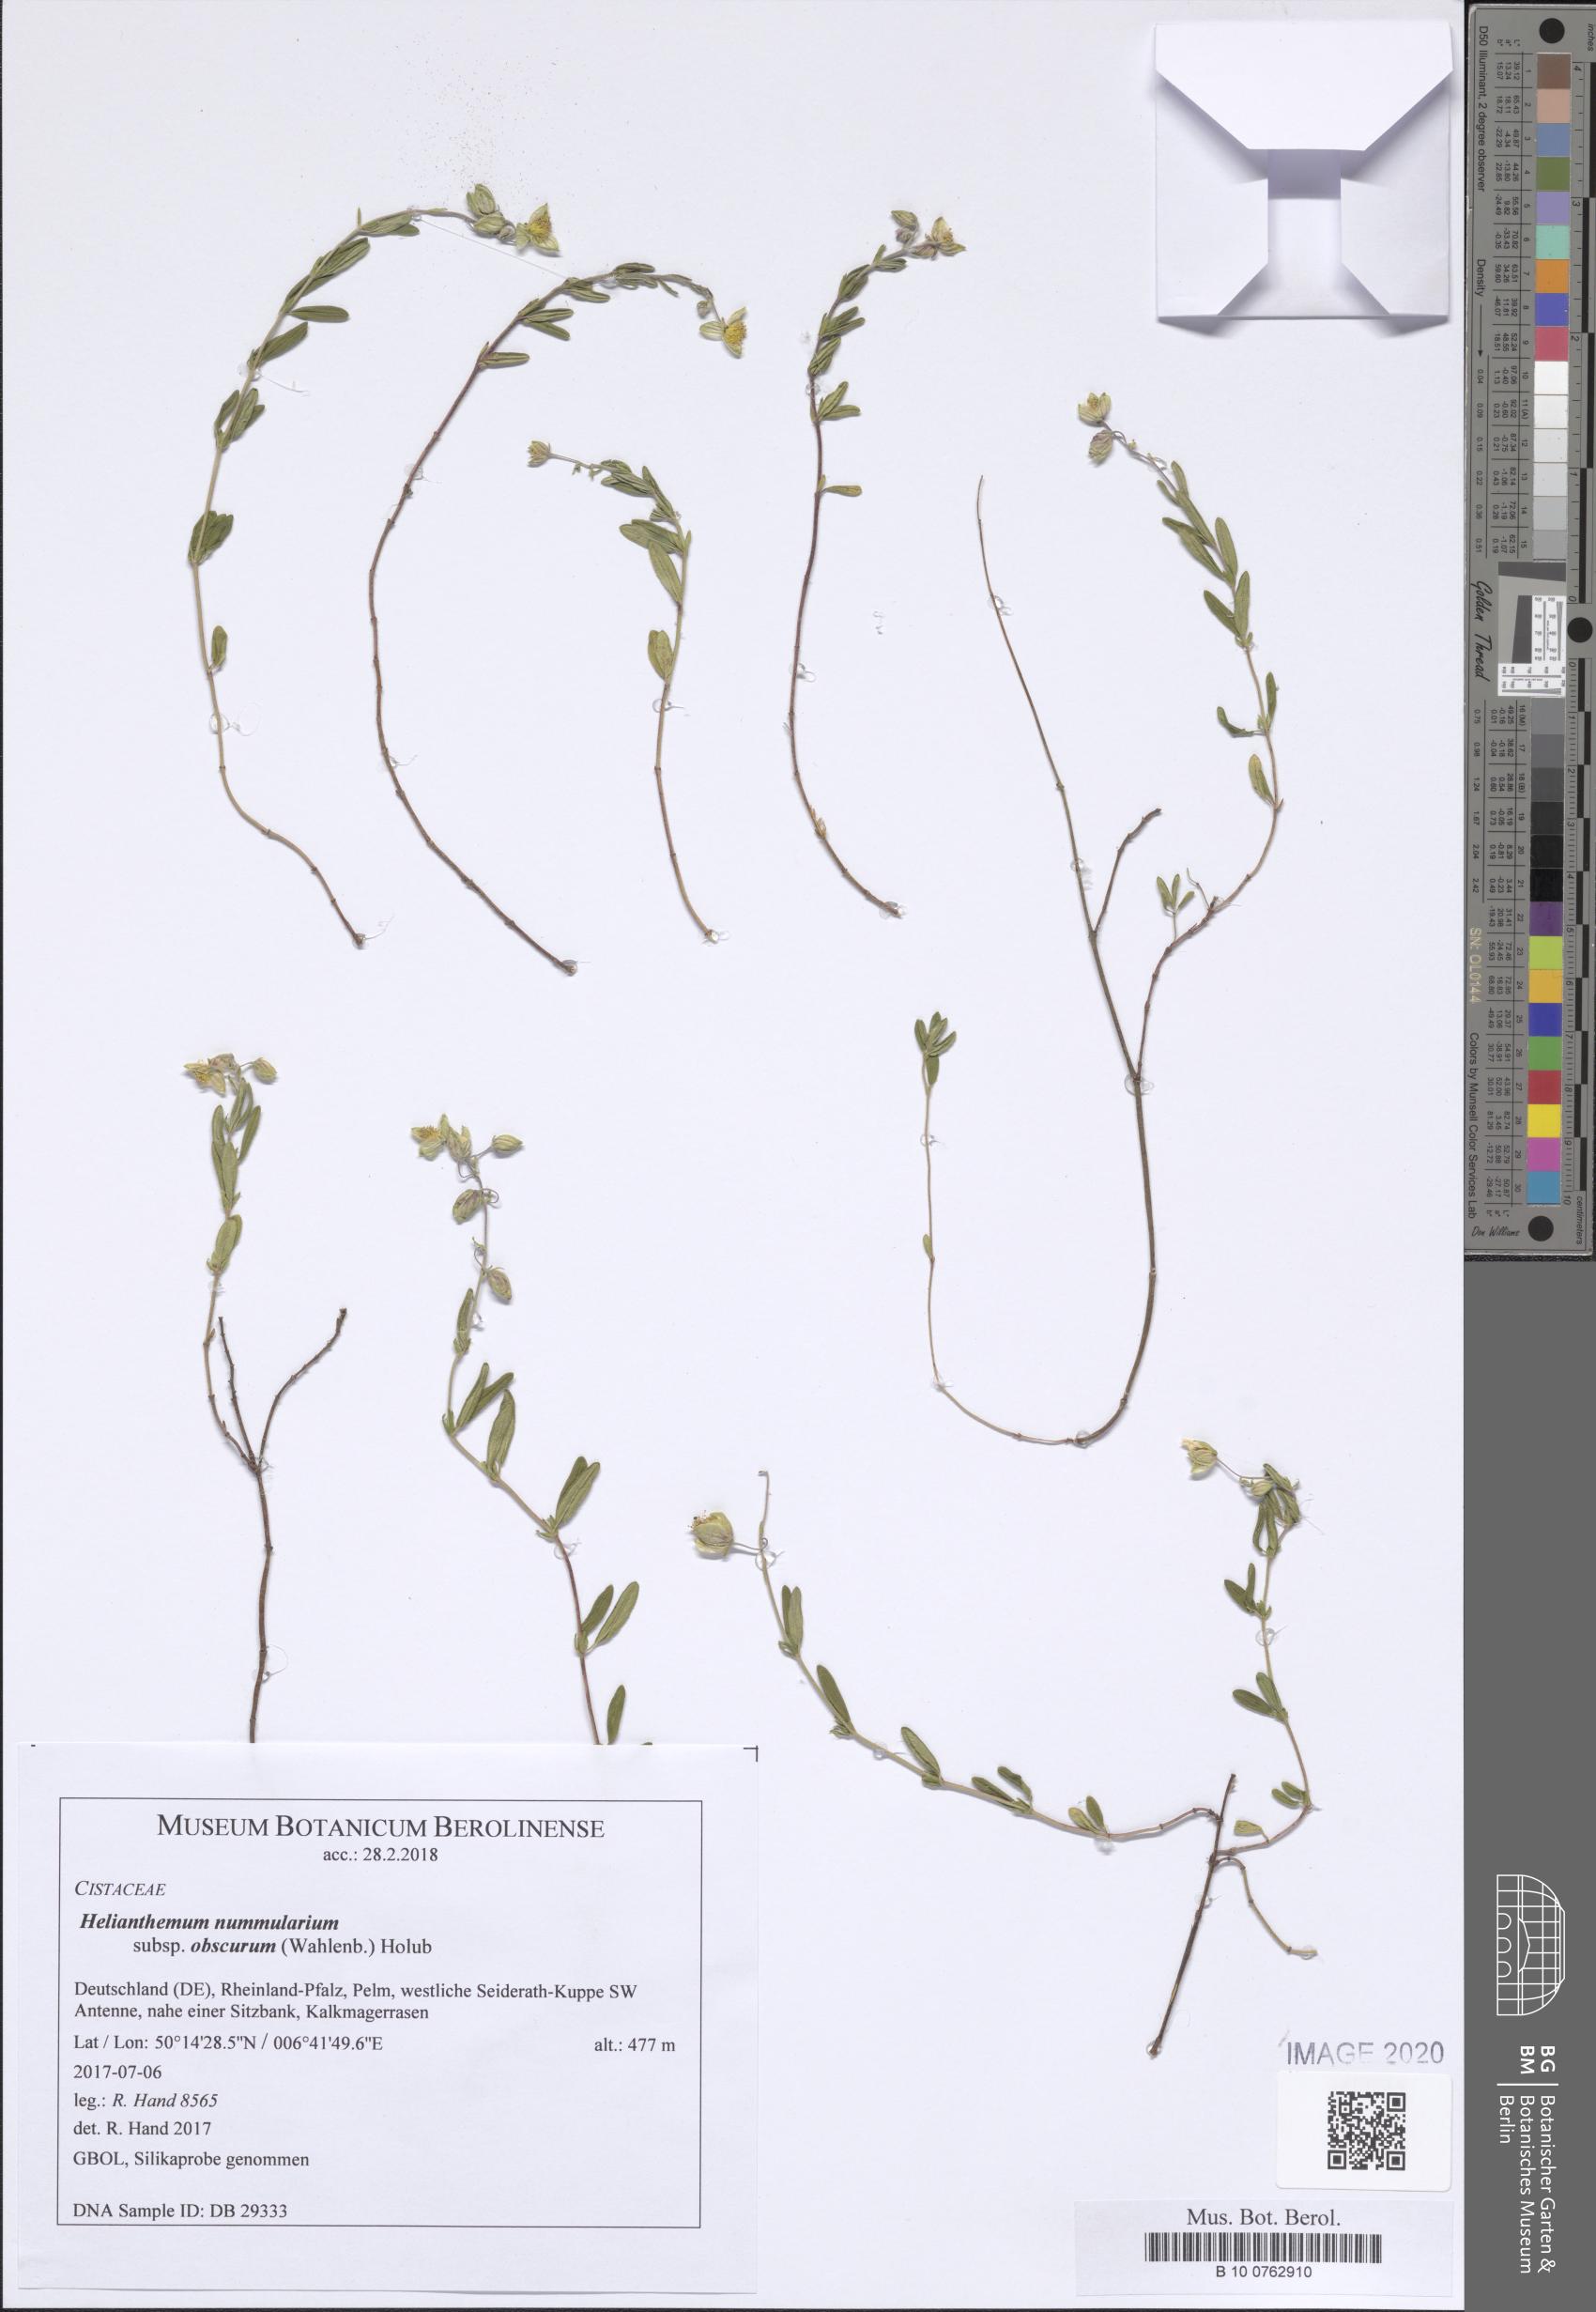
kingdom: Plantae
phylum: Tracheophyta
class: Magnoliopsida
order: Malvales
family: Cistaceae
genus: Helianthemum
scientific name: Helianthemum nummularium
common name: Common rock-rose
